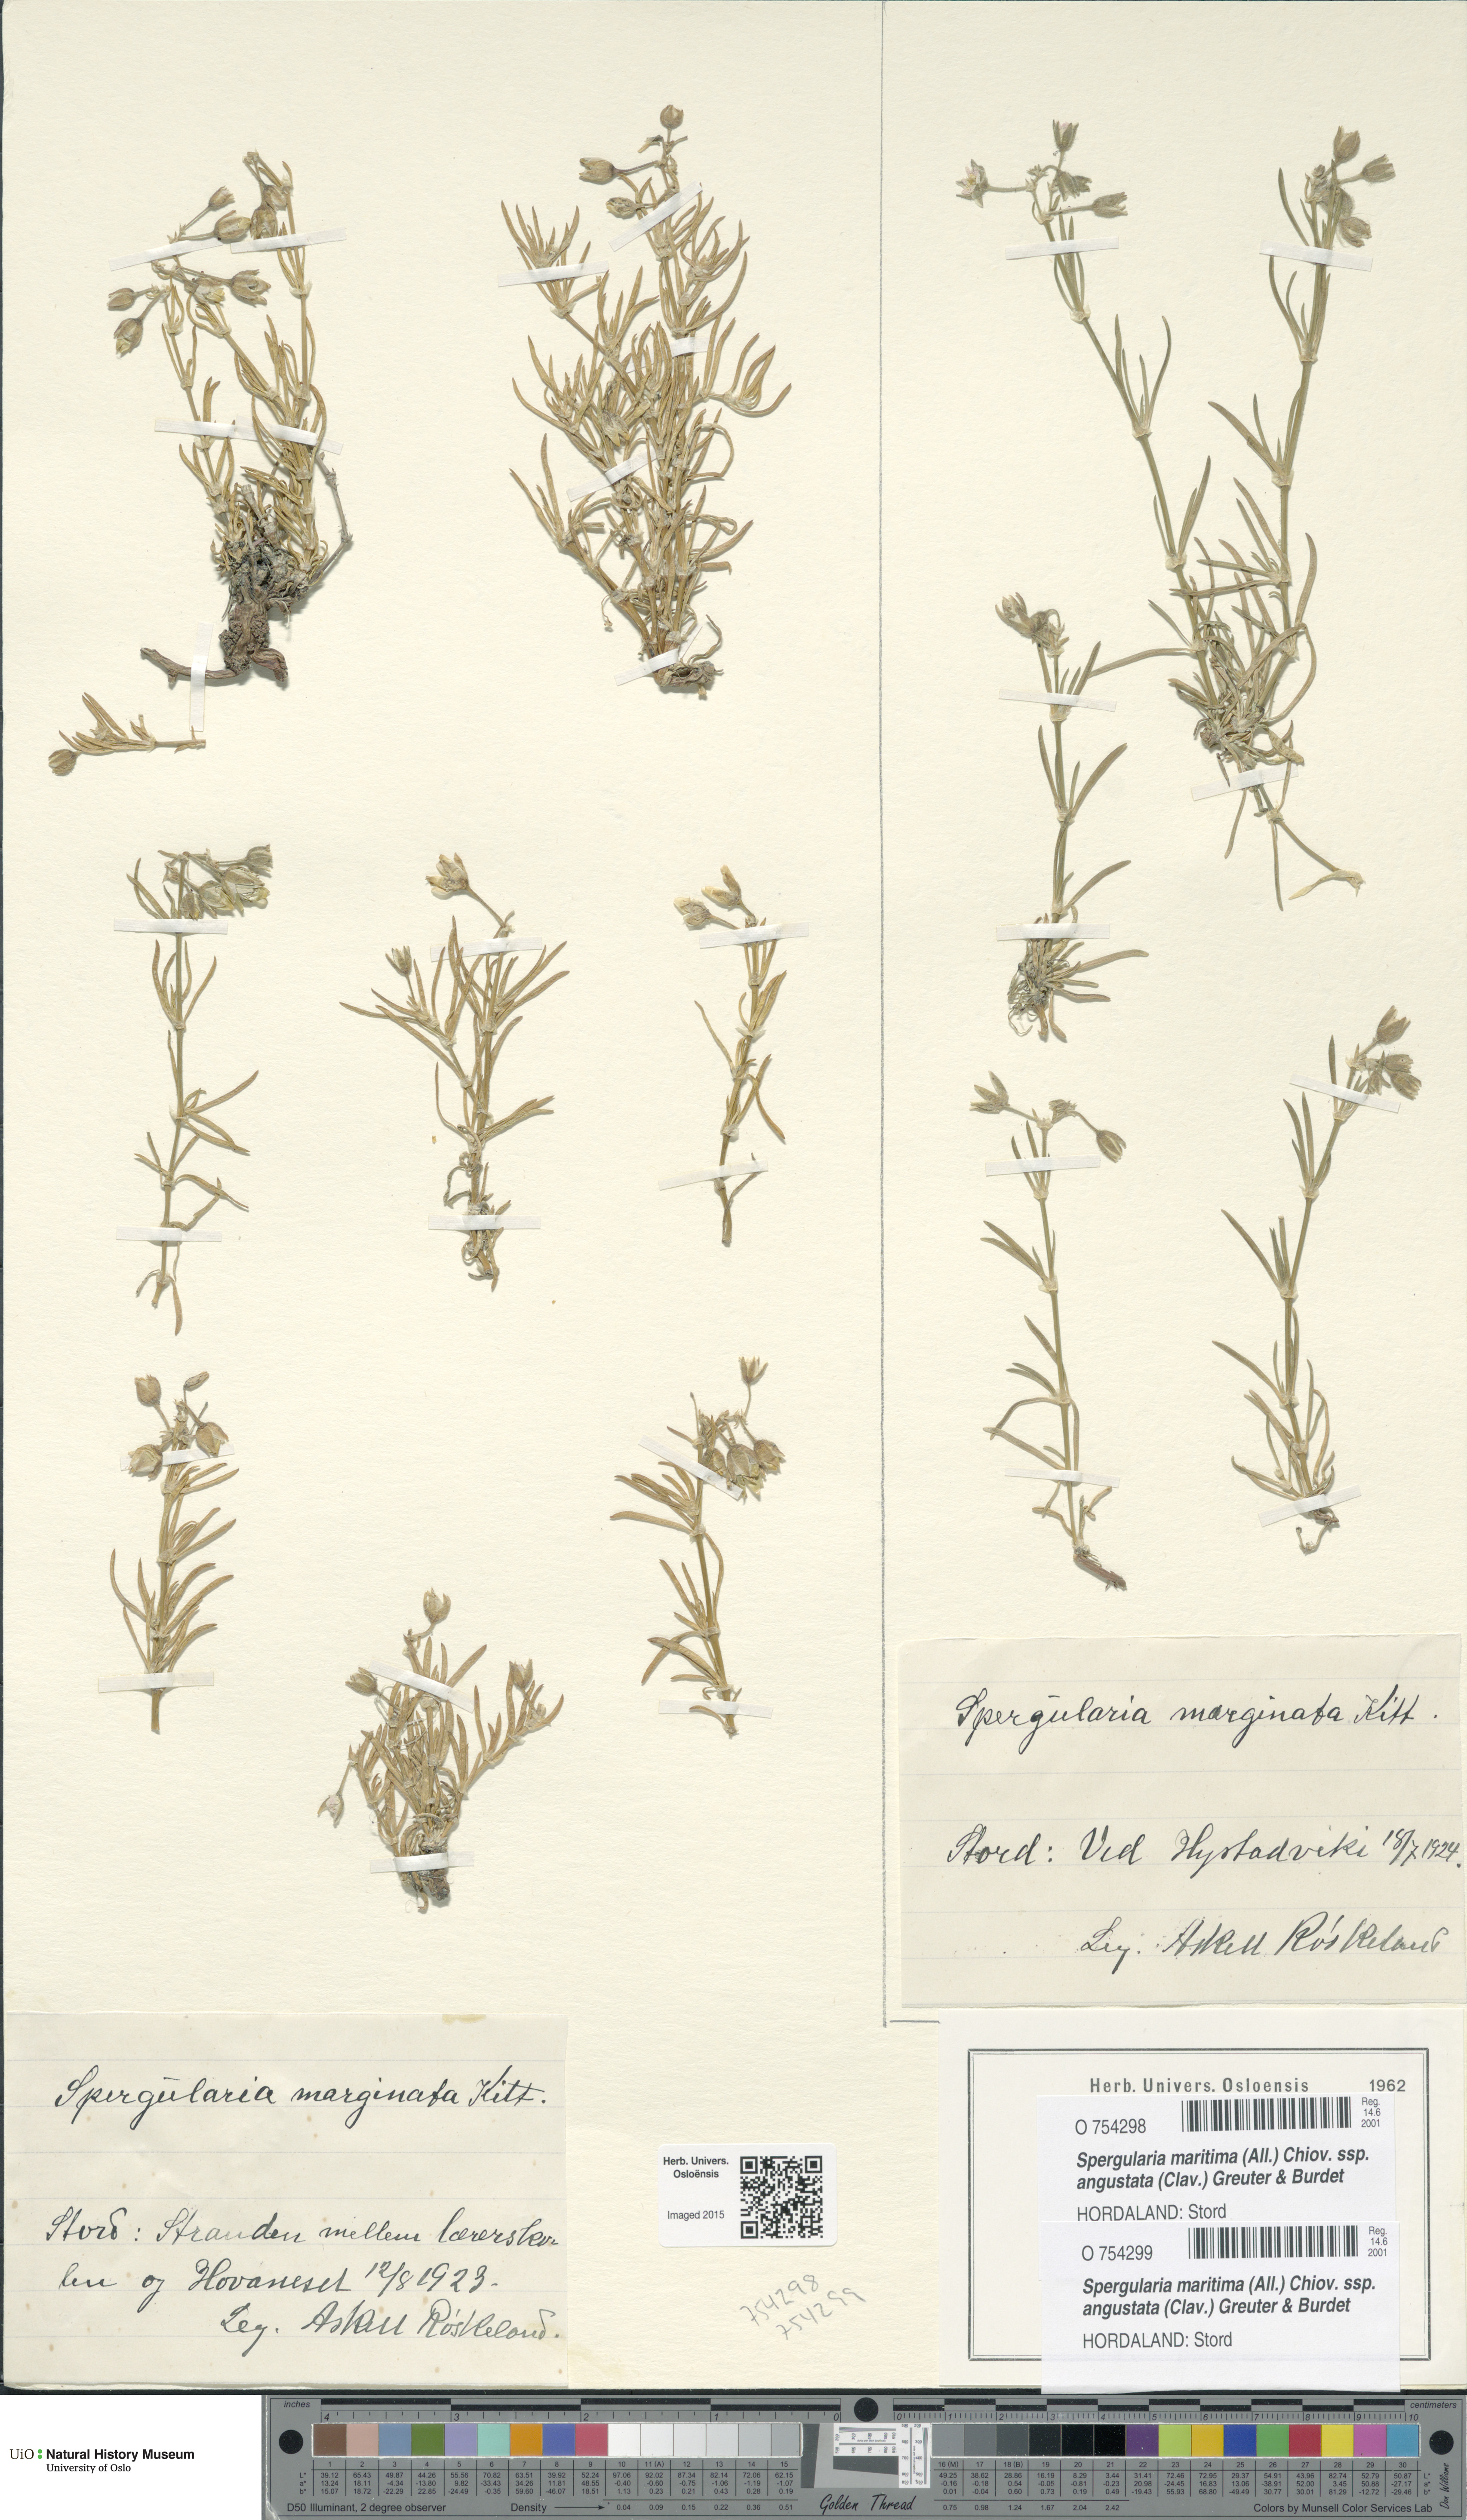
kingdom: Plantae
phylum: Tracheophyta
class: Magnoliopsida
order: Caryophyllales
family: Caryophyllaceae
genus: Spergularia
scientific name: Spergularia media
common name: Greater sea-spurrey
